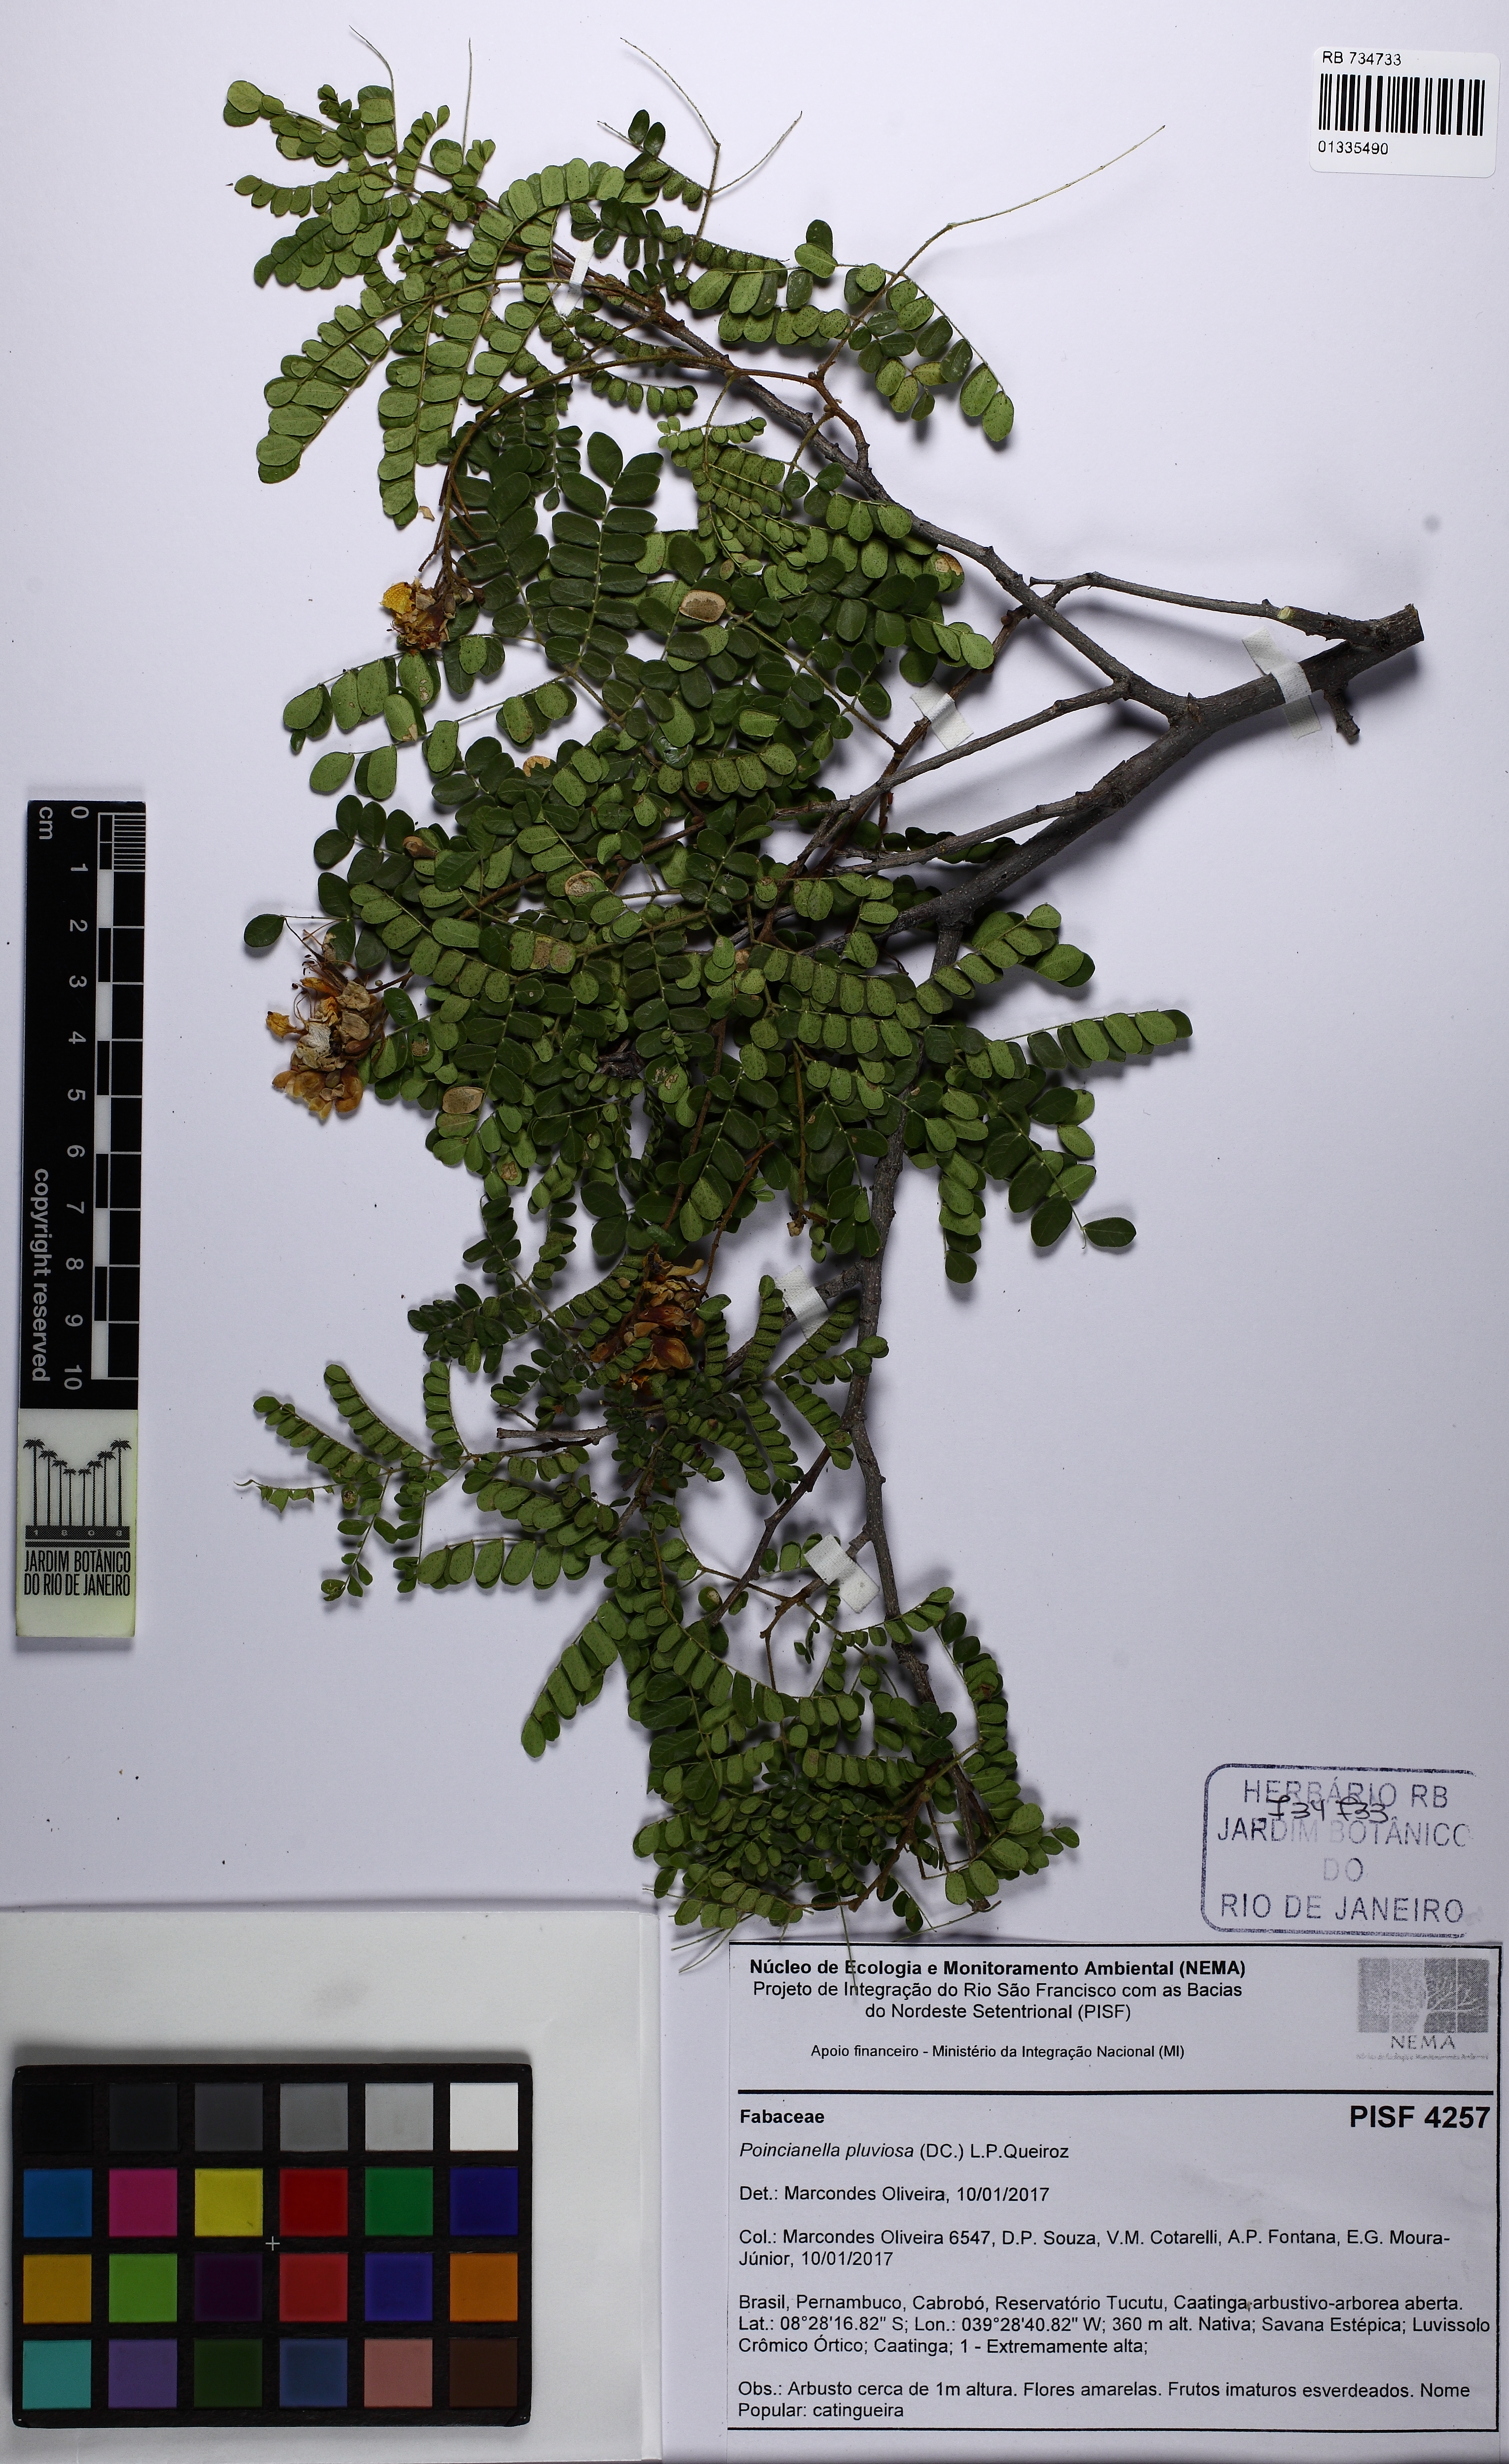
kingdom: Plantae
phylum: Tracheophyta
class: Magnoliopsida
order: Fabales
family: Fabaceae
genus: Cenostigma
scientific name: Cenostigma pluviosum
